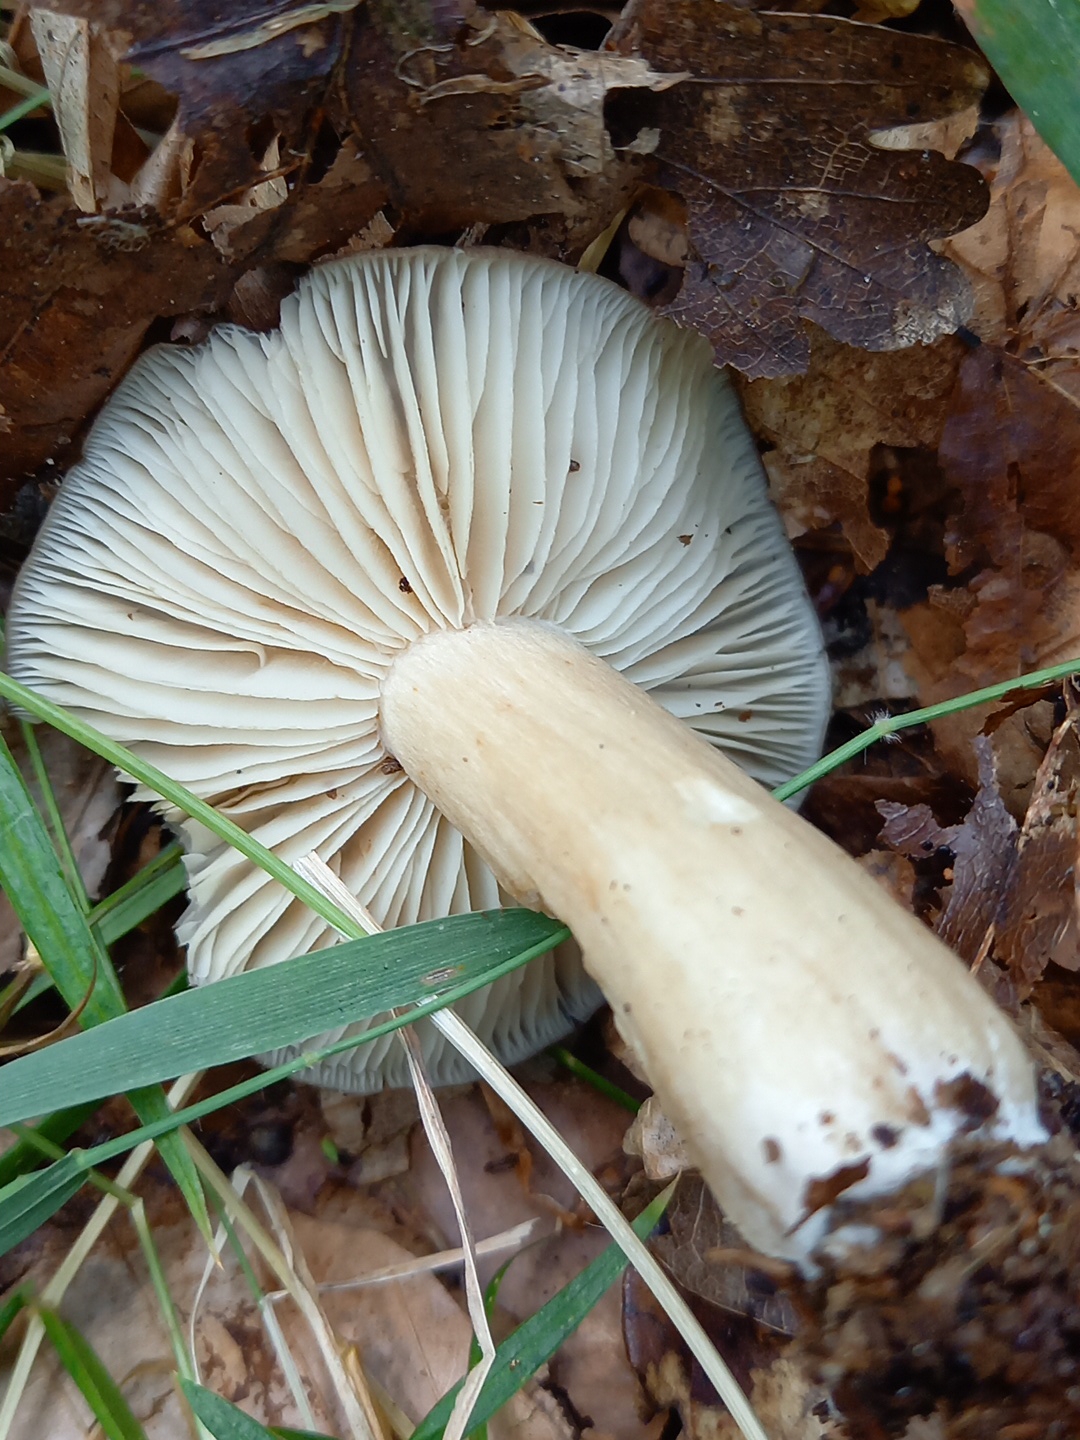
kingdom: Fungi
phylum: Basidiomycota
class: Agaricomycetes
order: Agaricales
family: Tricholomataceae
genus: Megacollybia
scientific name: Megacollybia platyphylla
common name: bredbladet væbnerhat
